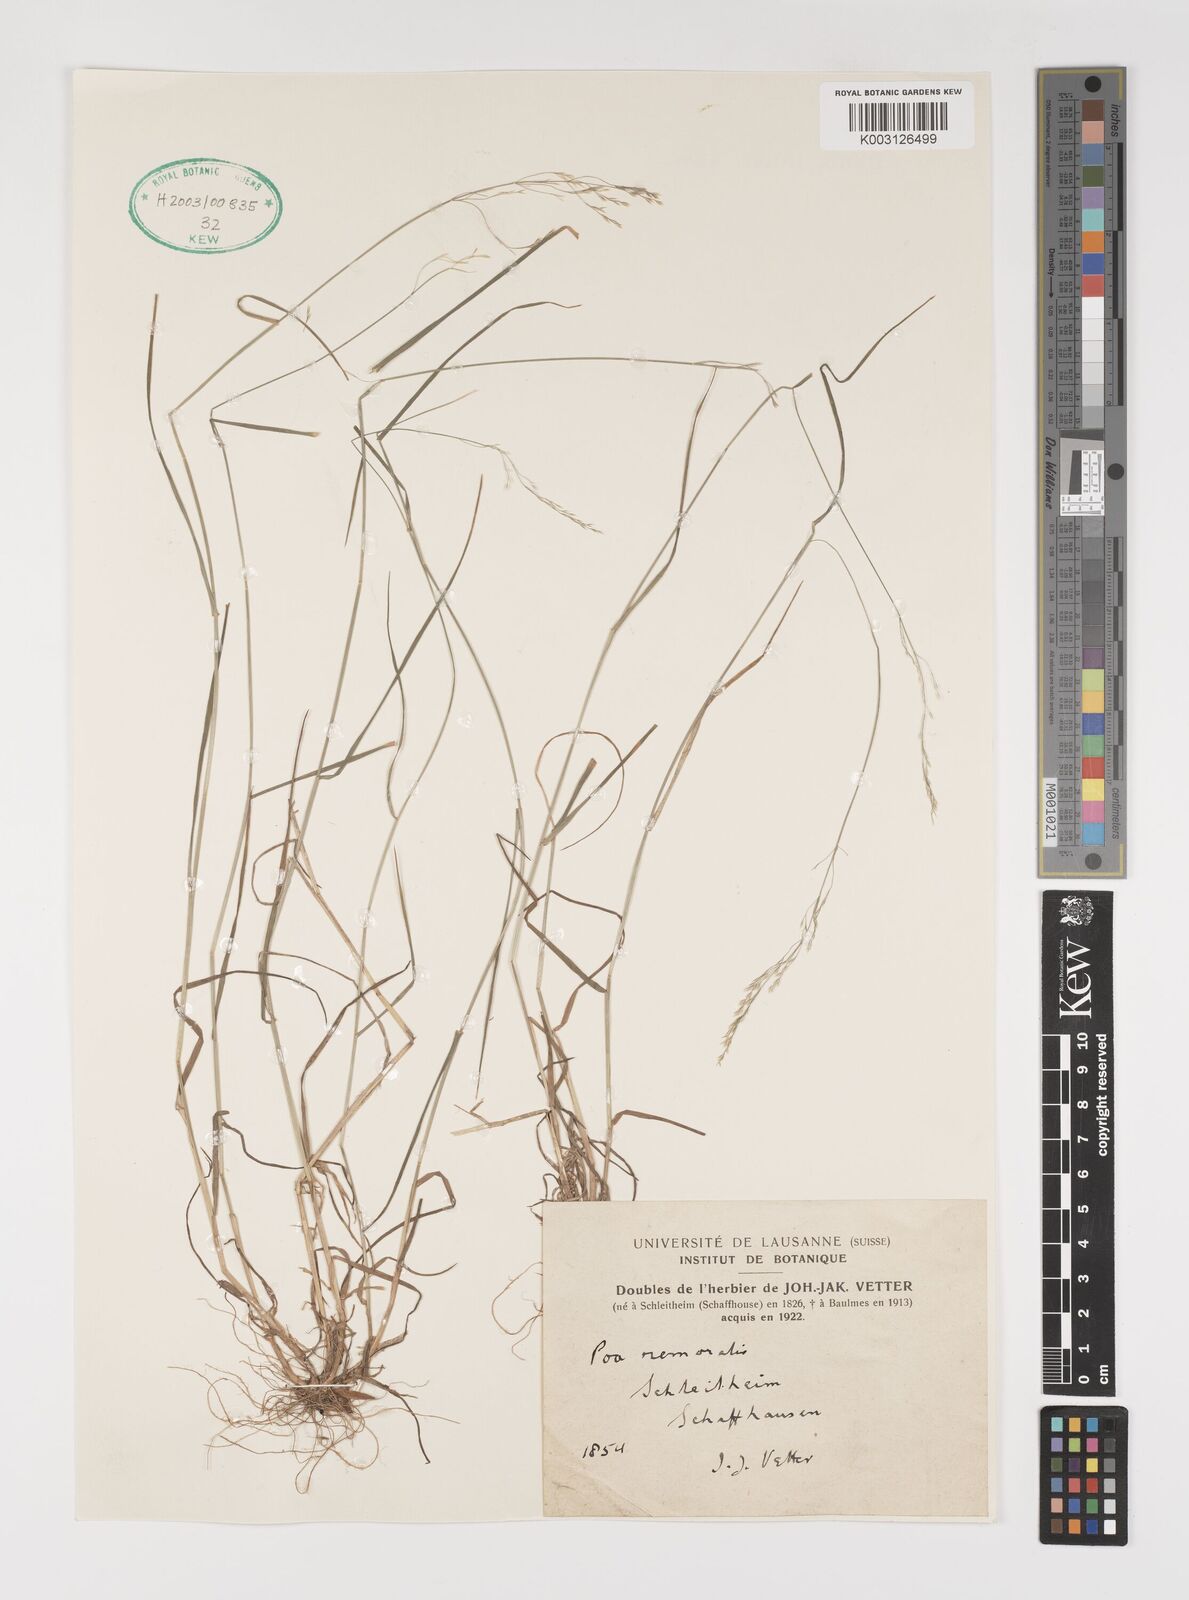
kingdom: Plantae
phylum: Tracheophyta
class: Liliopsida
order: Poales
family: Poaceae
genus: Poa
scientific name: Poa nemoralis
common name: Wood bluegrass
